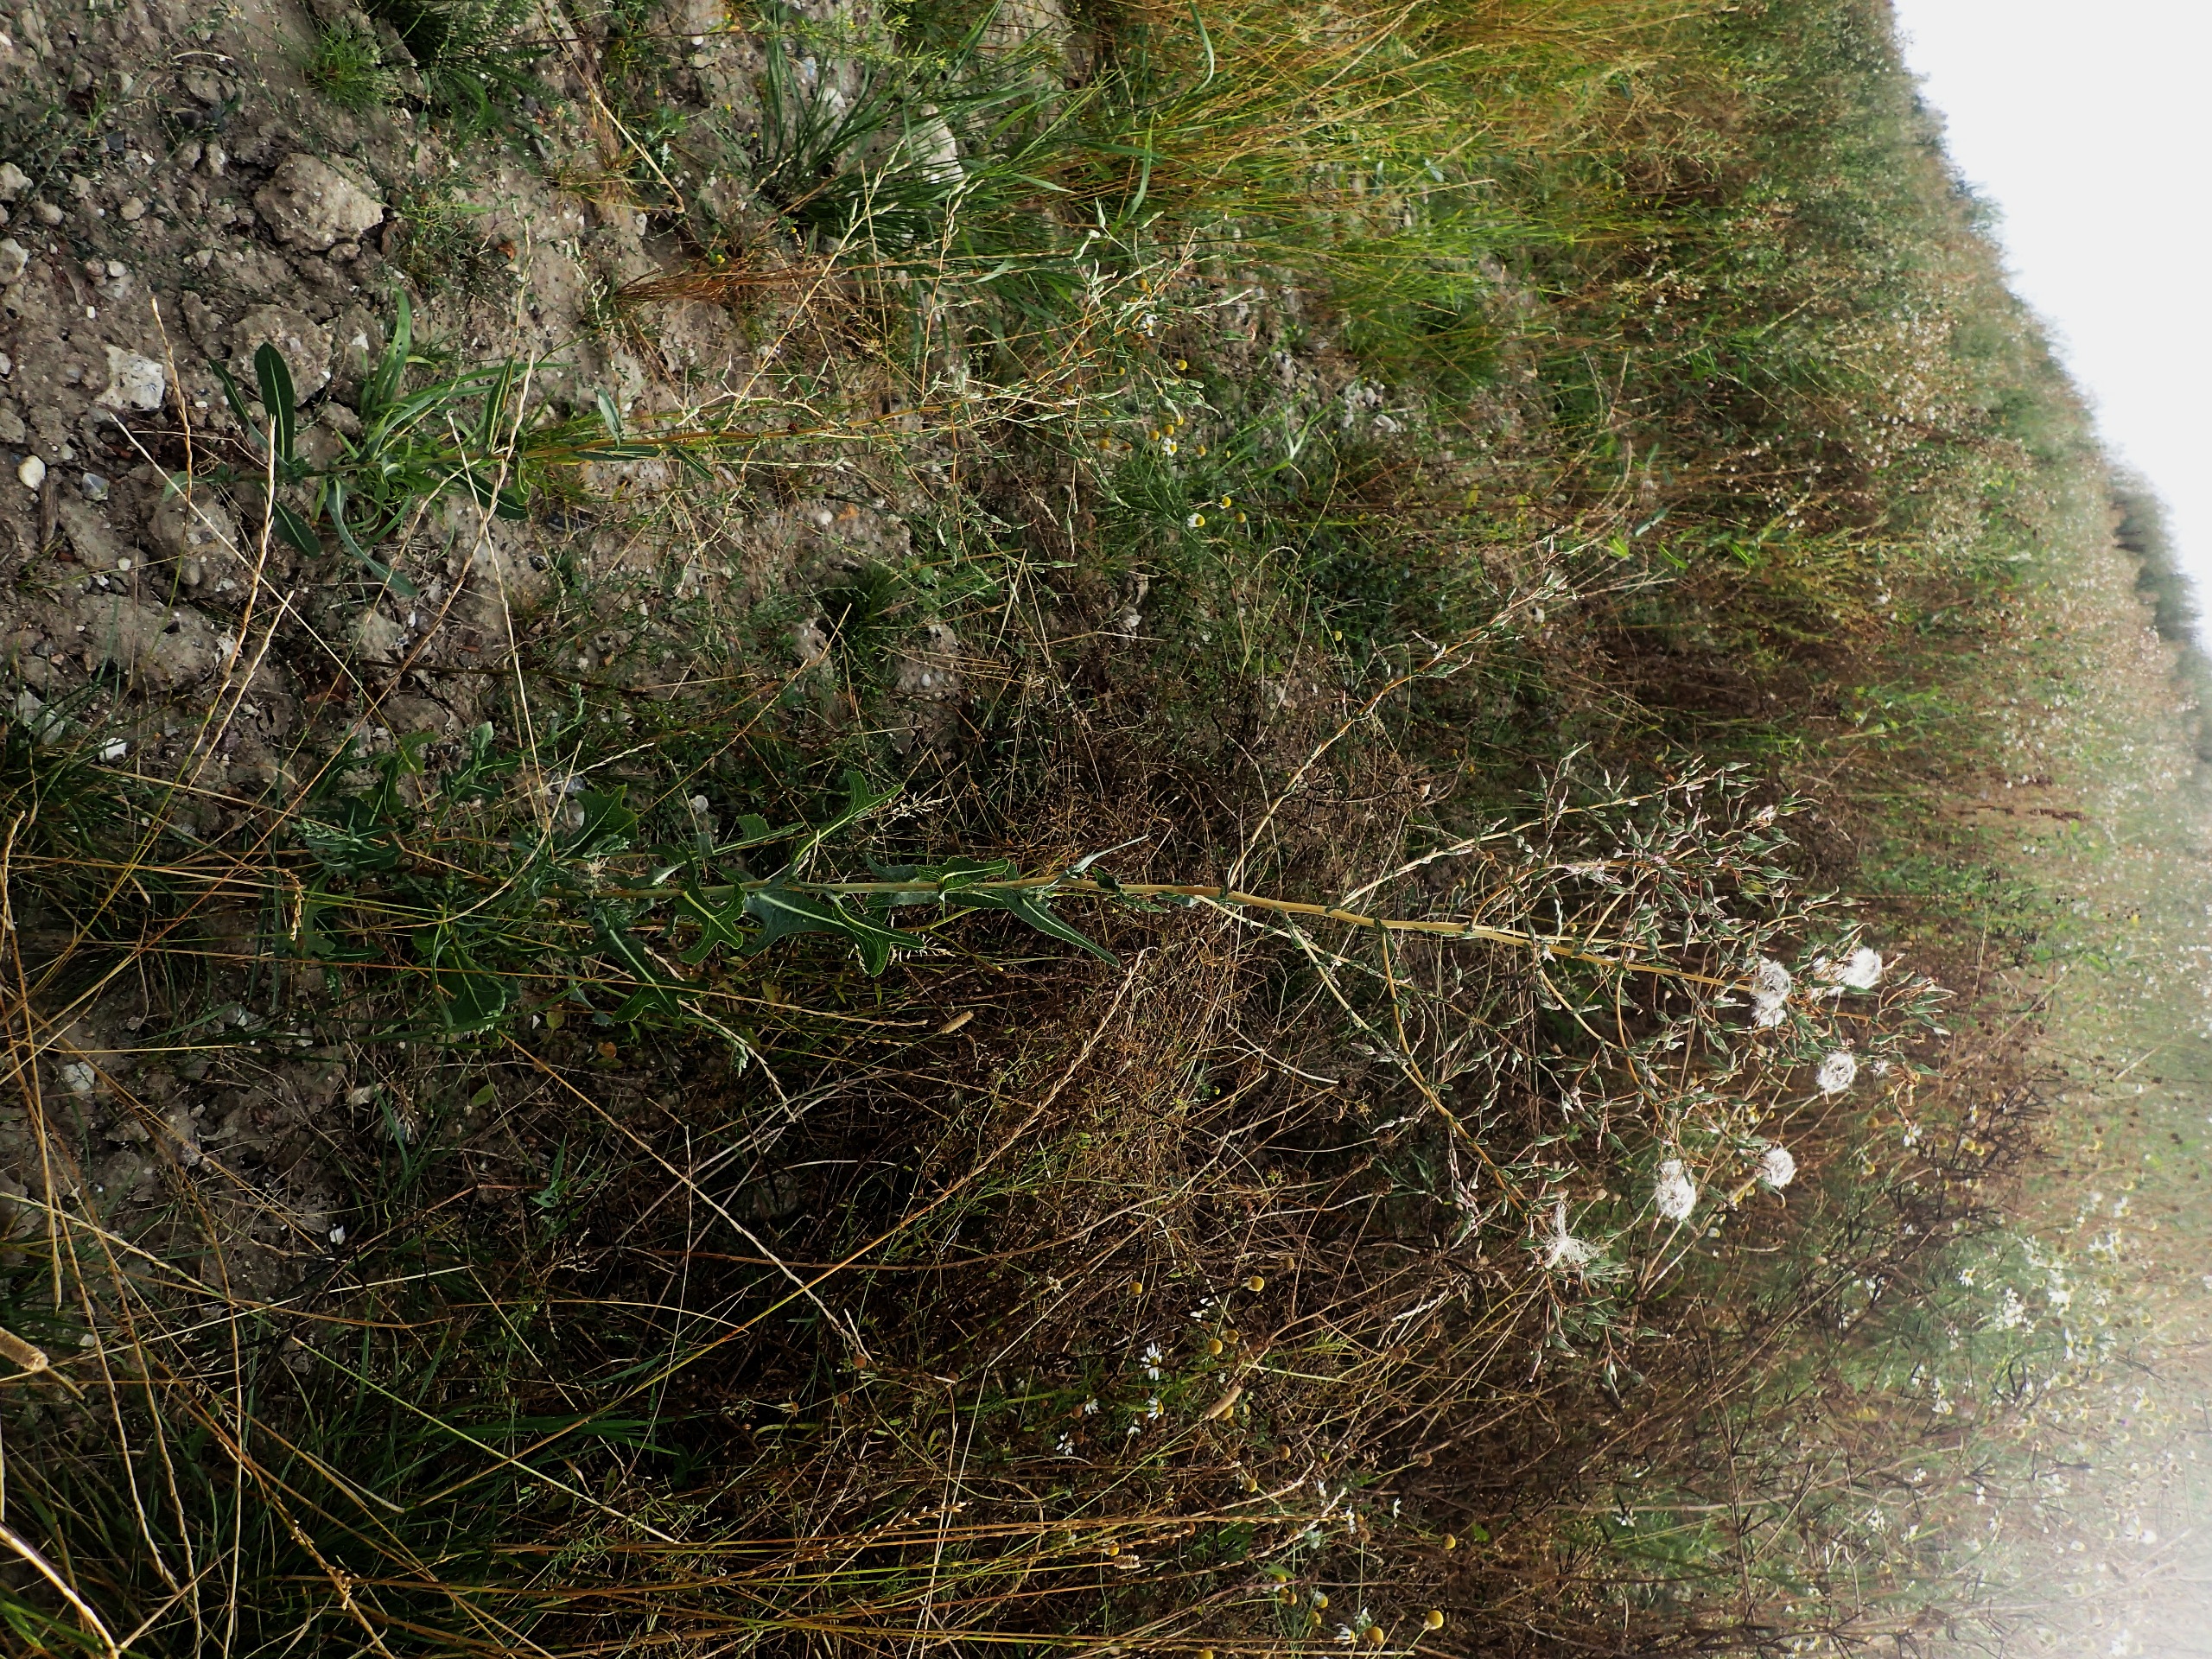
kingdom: Plantae
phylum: Tracheophyta
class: Magnoliopsida
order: Asterales
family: Asteraceae
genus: Lactuca
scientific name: Lactuca serriola
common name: Tornet salat
